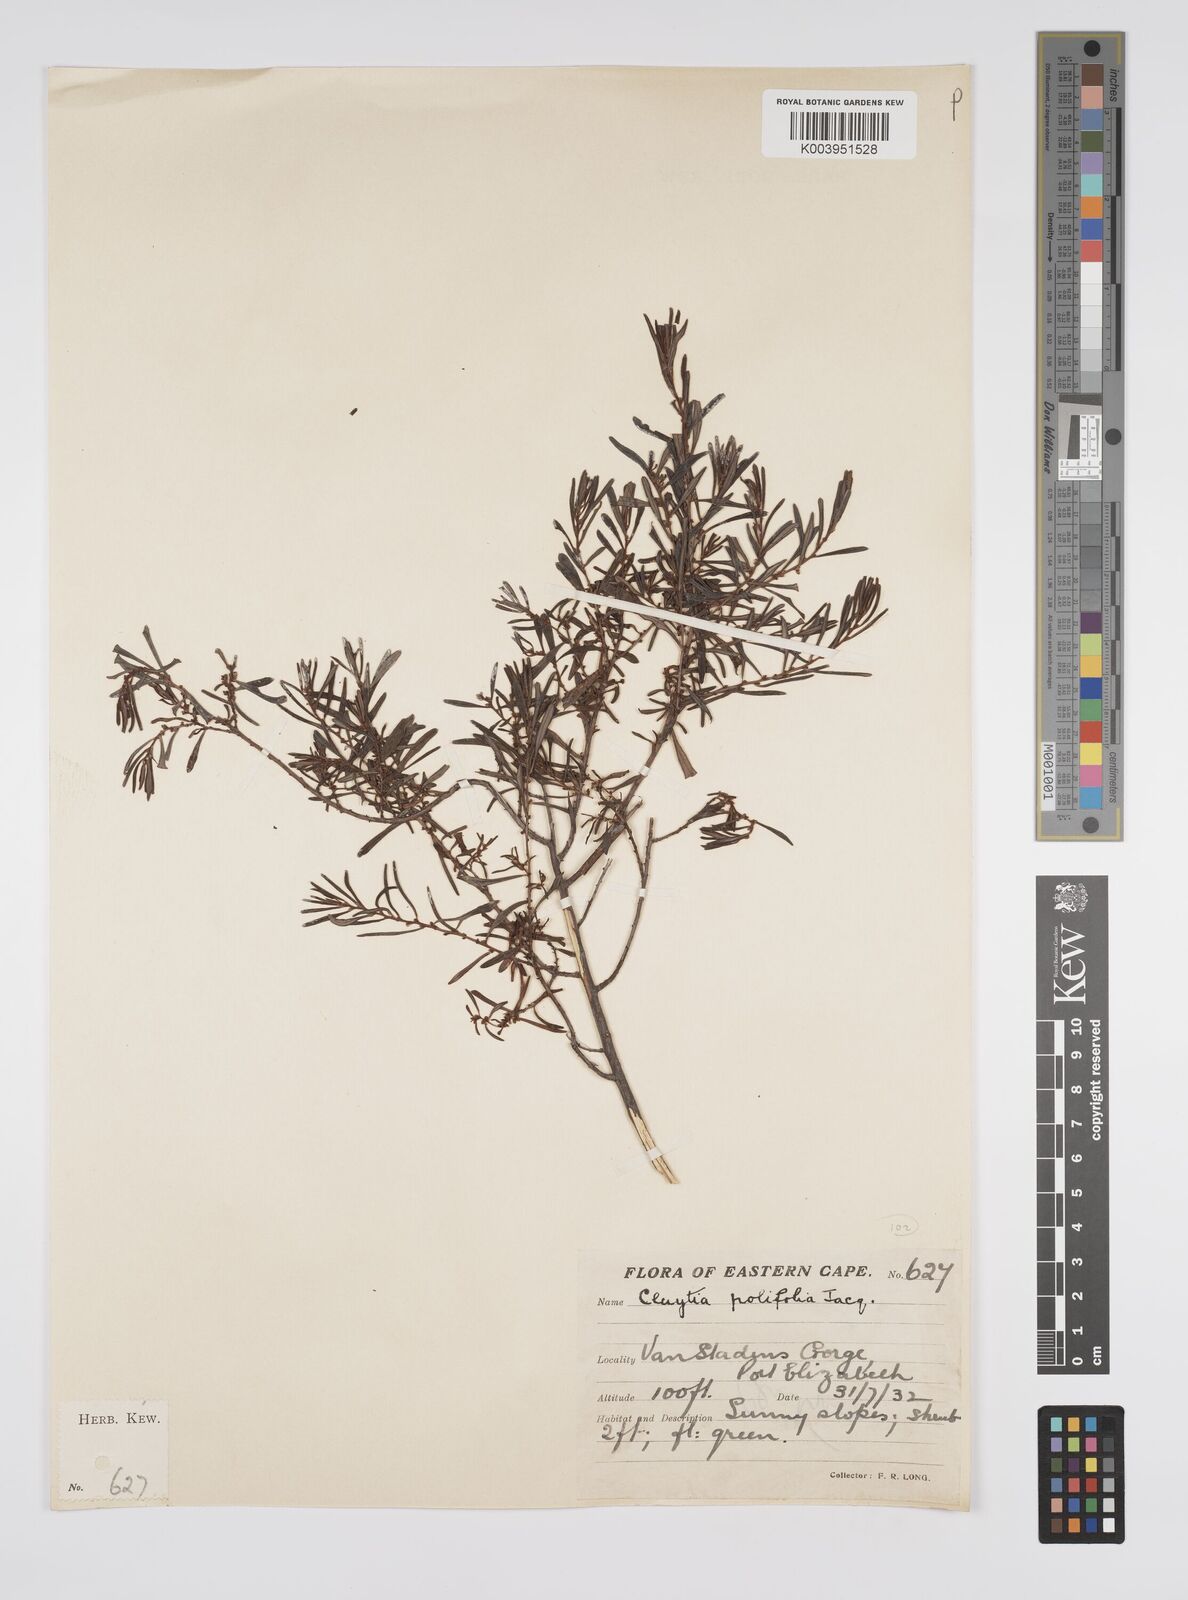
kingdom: Plantae
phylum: Tracheophyta
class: Magnoliopsida
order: Malpighiales
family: Peraceae
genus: Clutia
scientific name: Clutia
